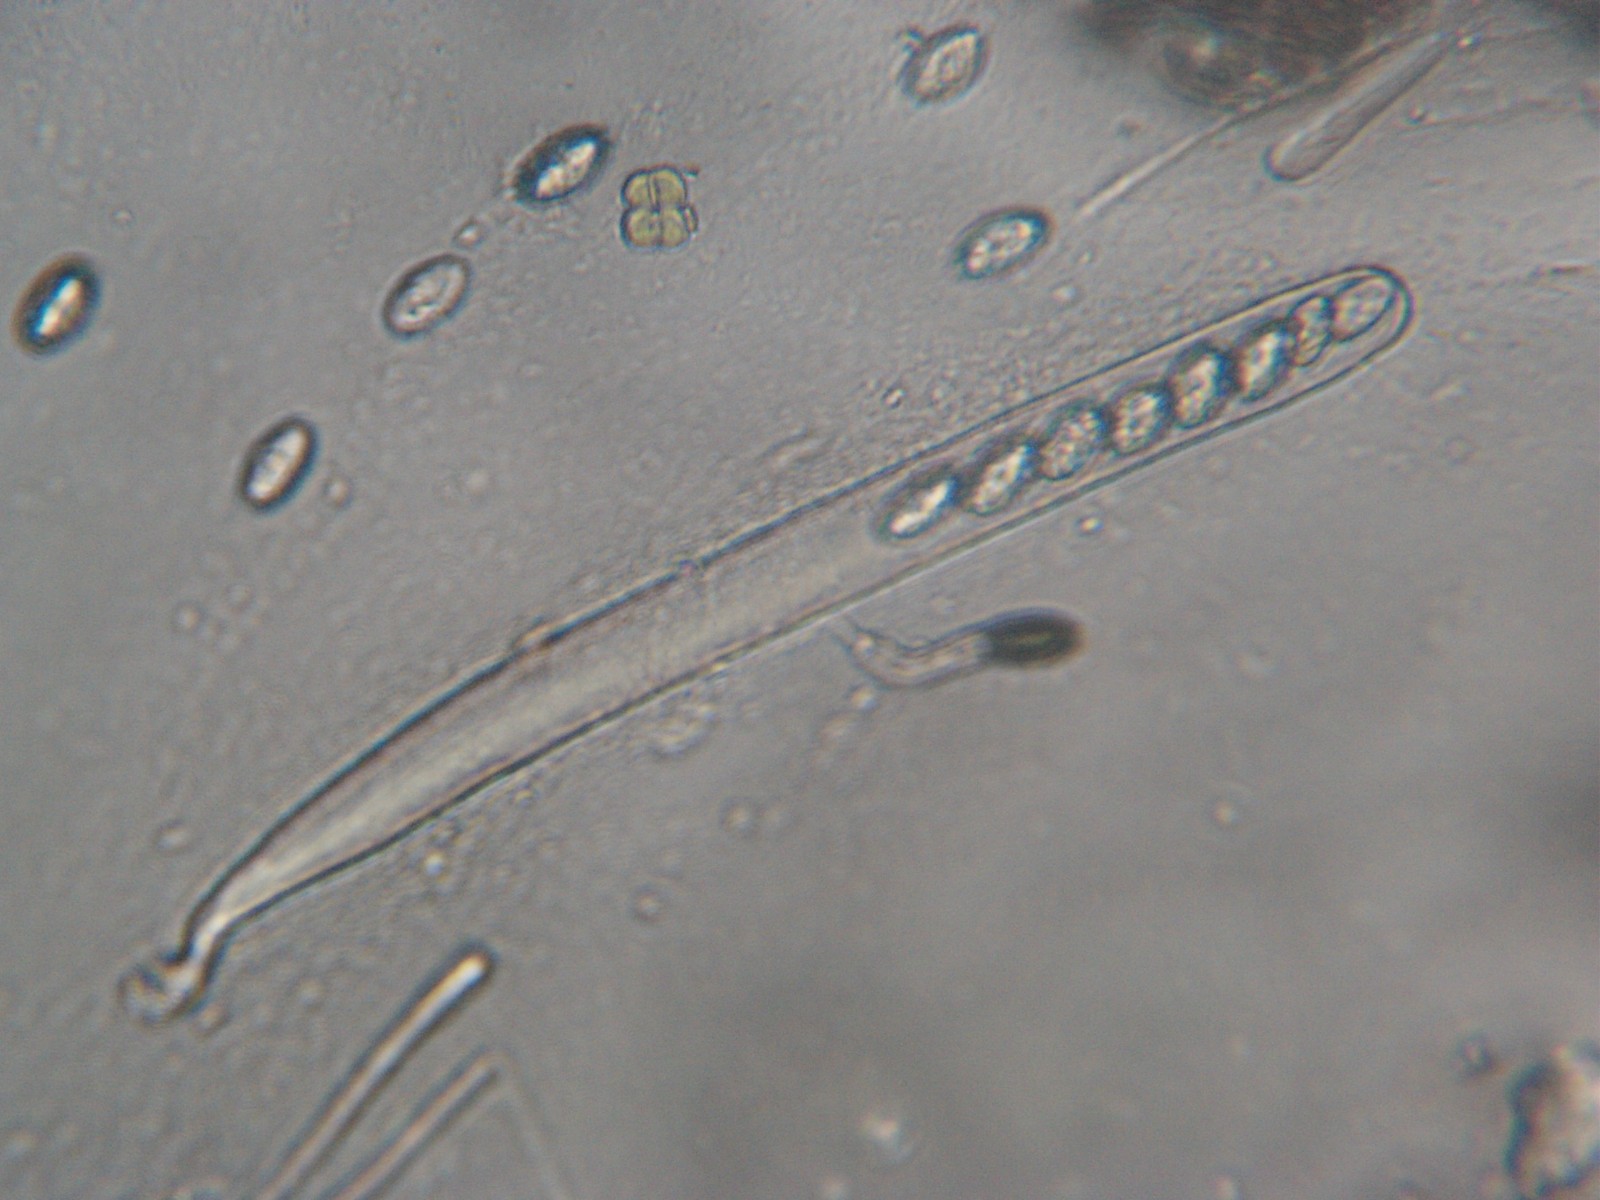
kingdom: Fungi
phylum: Ascomycota
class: Pezizomycetes
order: Pezizales
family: Pyronemataceae
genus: Scutellinia
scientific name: Scutellinia
